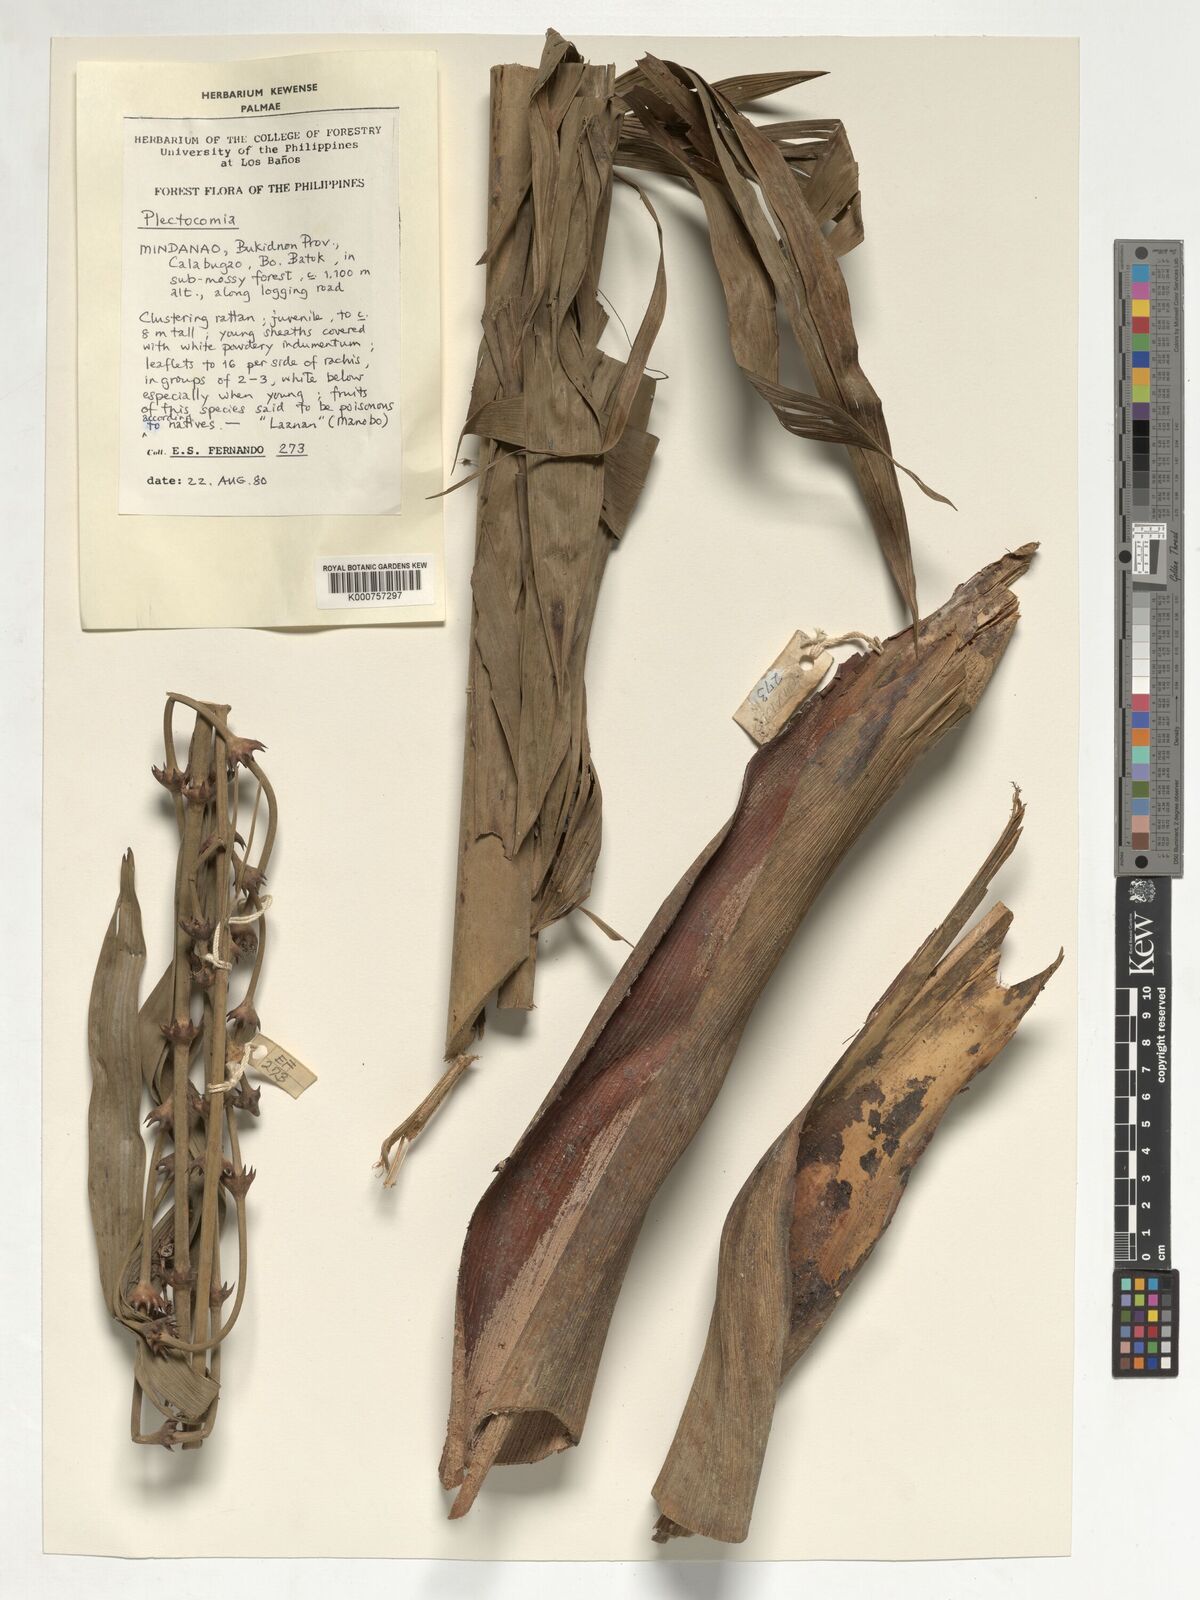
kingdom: Plantae
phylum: Tracheophyta
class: Liliopsida
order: Arecales
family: Arecaceae
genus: Plectocomia
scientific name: Plectocomia
